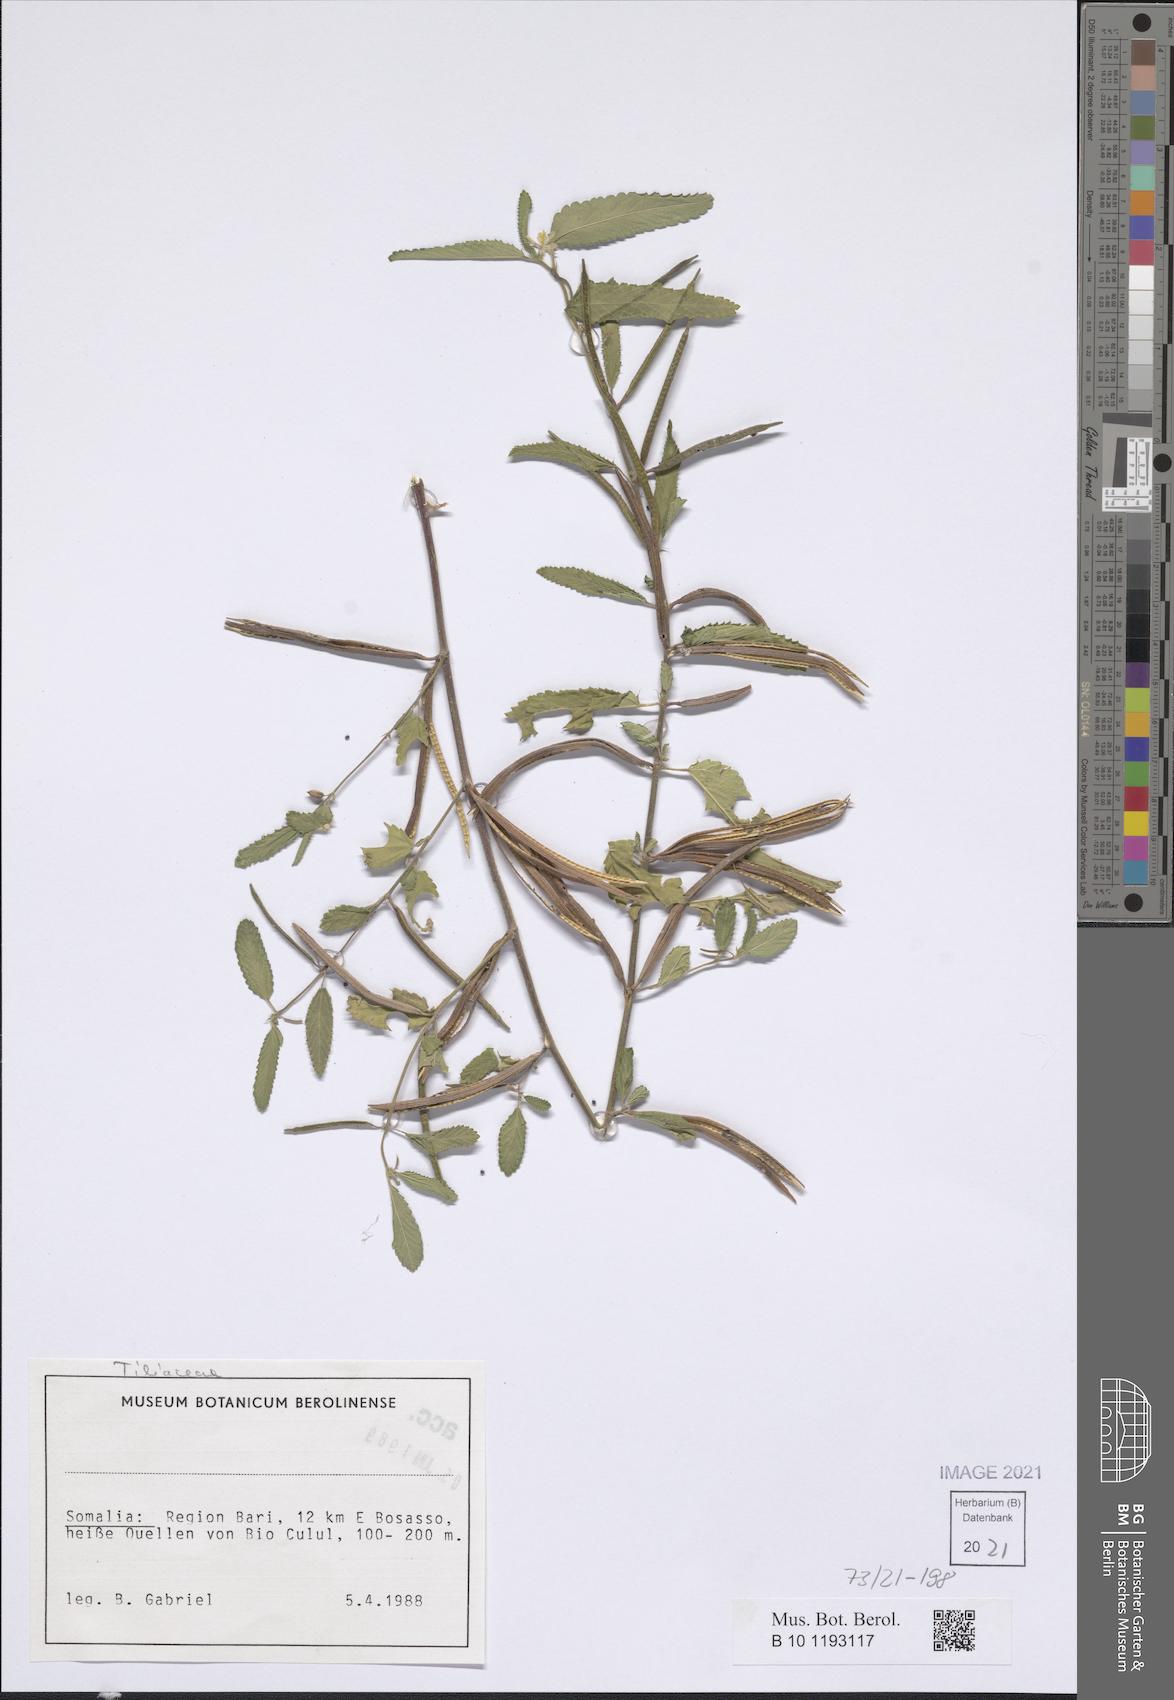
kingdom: Plantae
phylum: Tracheophyta
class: Magnoliopsida
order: Malvales
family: Tiliaceae
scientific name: Tiliaceae
